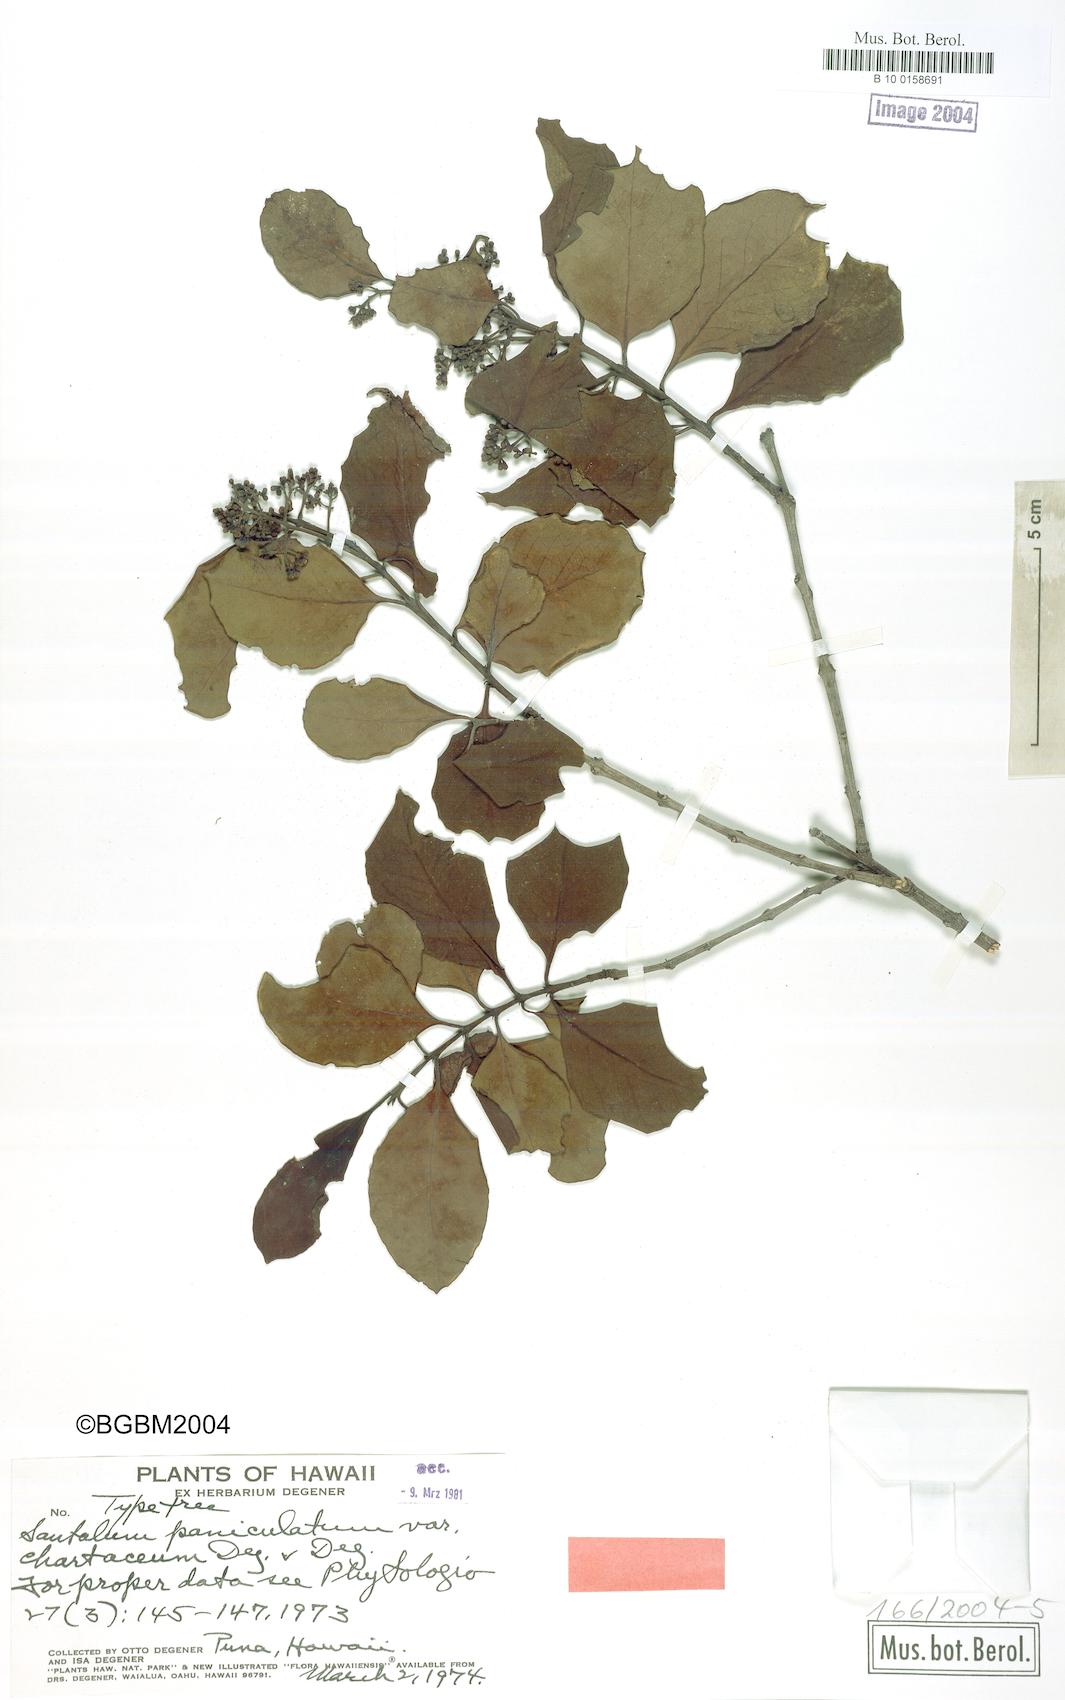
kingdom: Plantae
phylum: Tracheophyta
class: Magnoliopsida
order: Santalales
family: Santalaceae
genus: Santalum
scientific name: Santalum paniculatum
